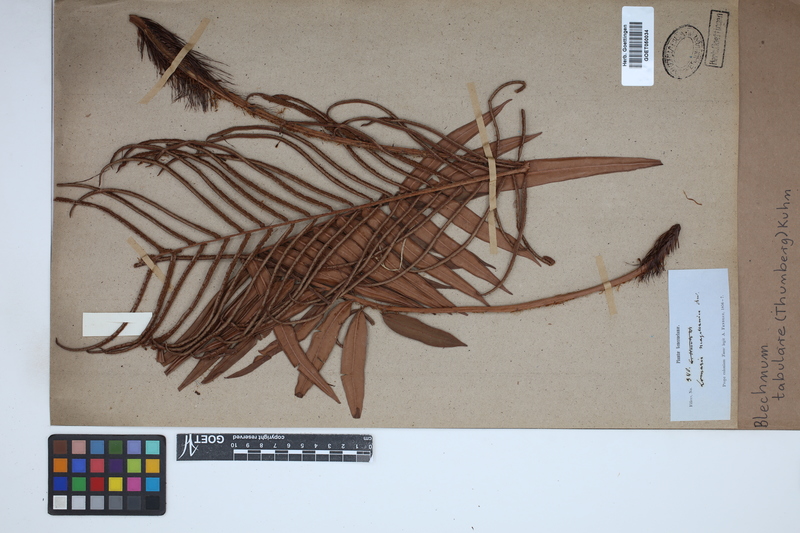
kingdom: Plantae
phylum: Tracheophyta
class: Polypodiopsida
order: Polypodiales
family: Blechnaceae
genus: Lomariocycas
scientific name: Lomariocycas tabularis
